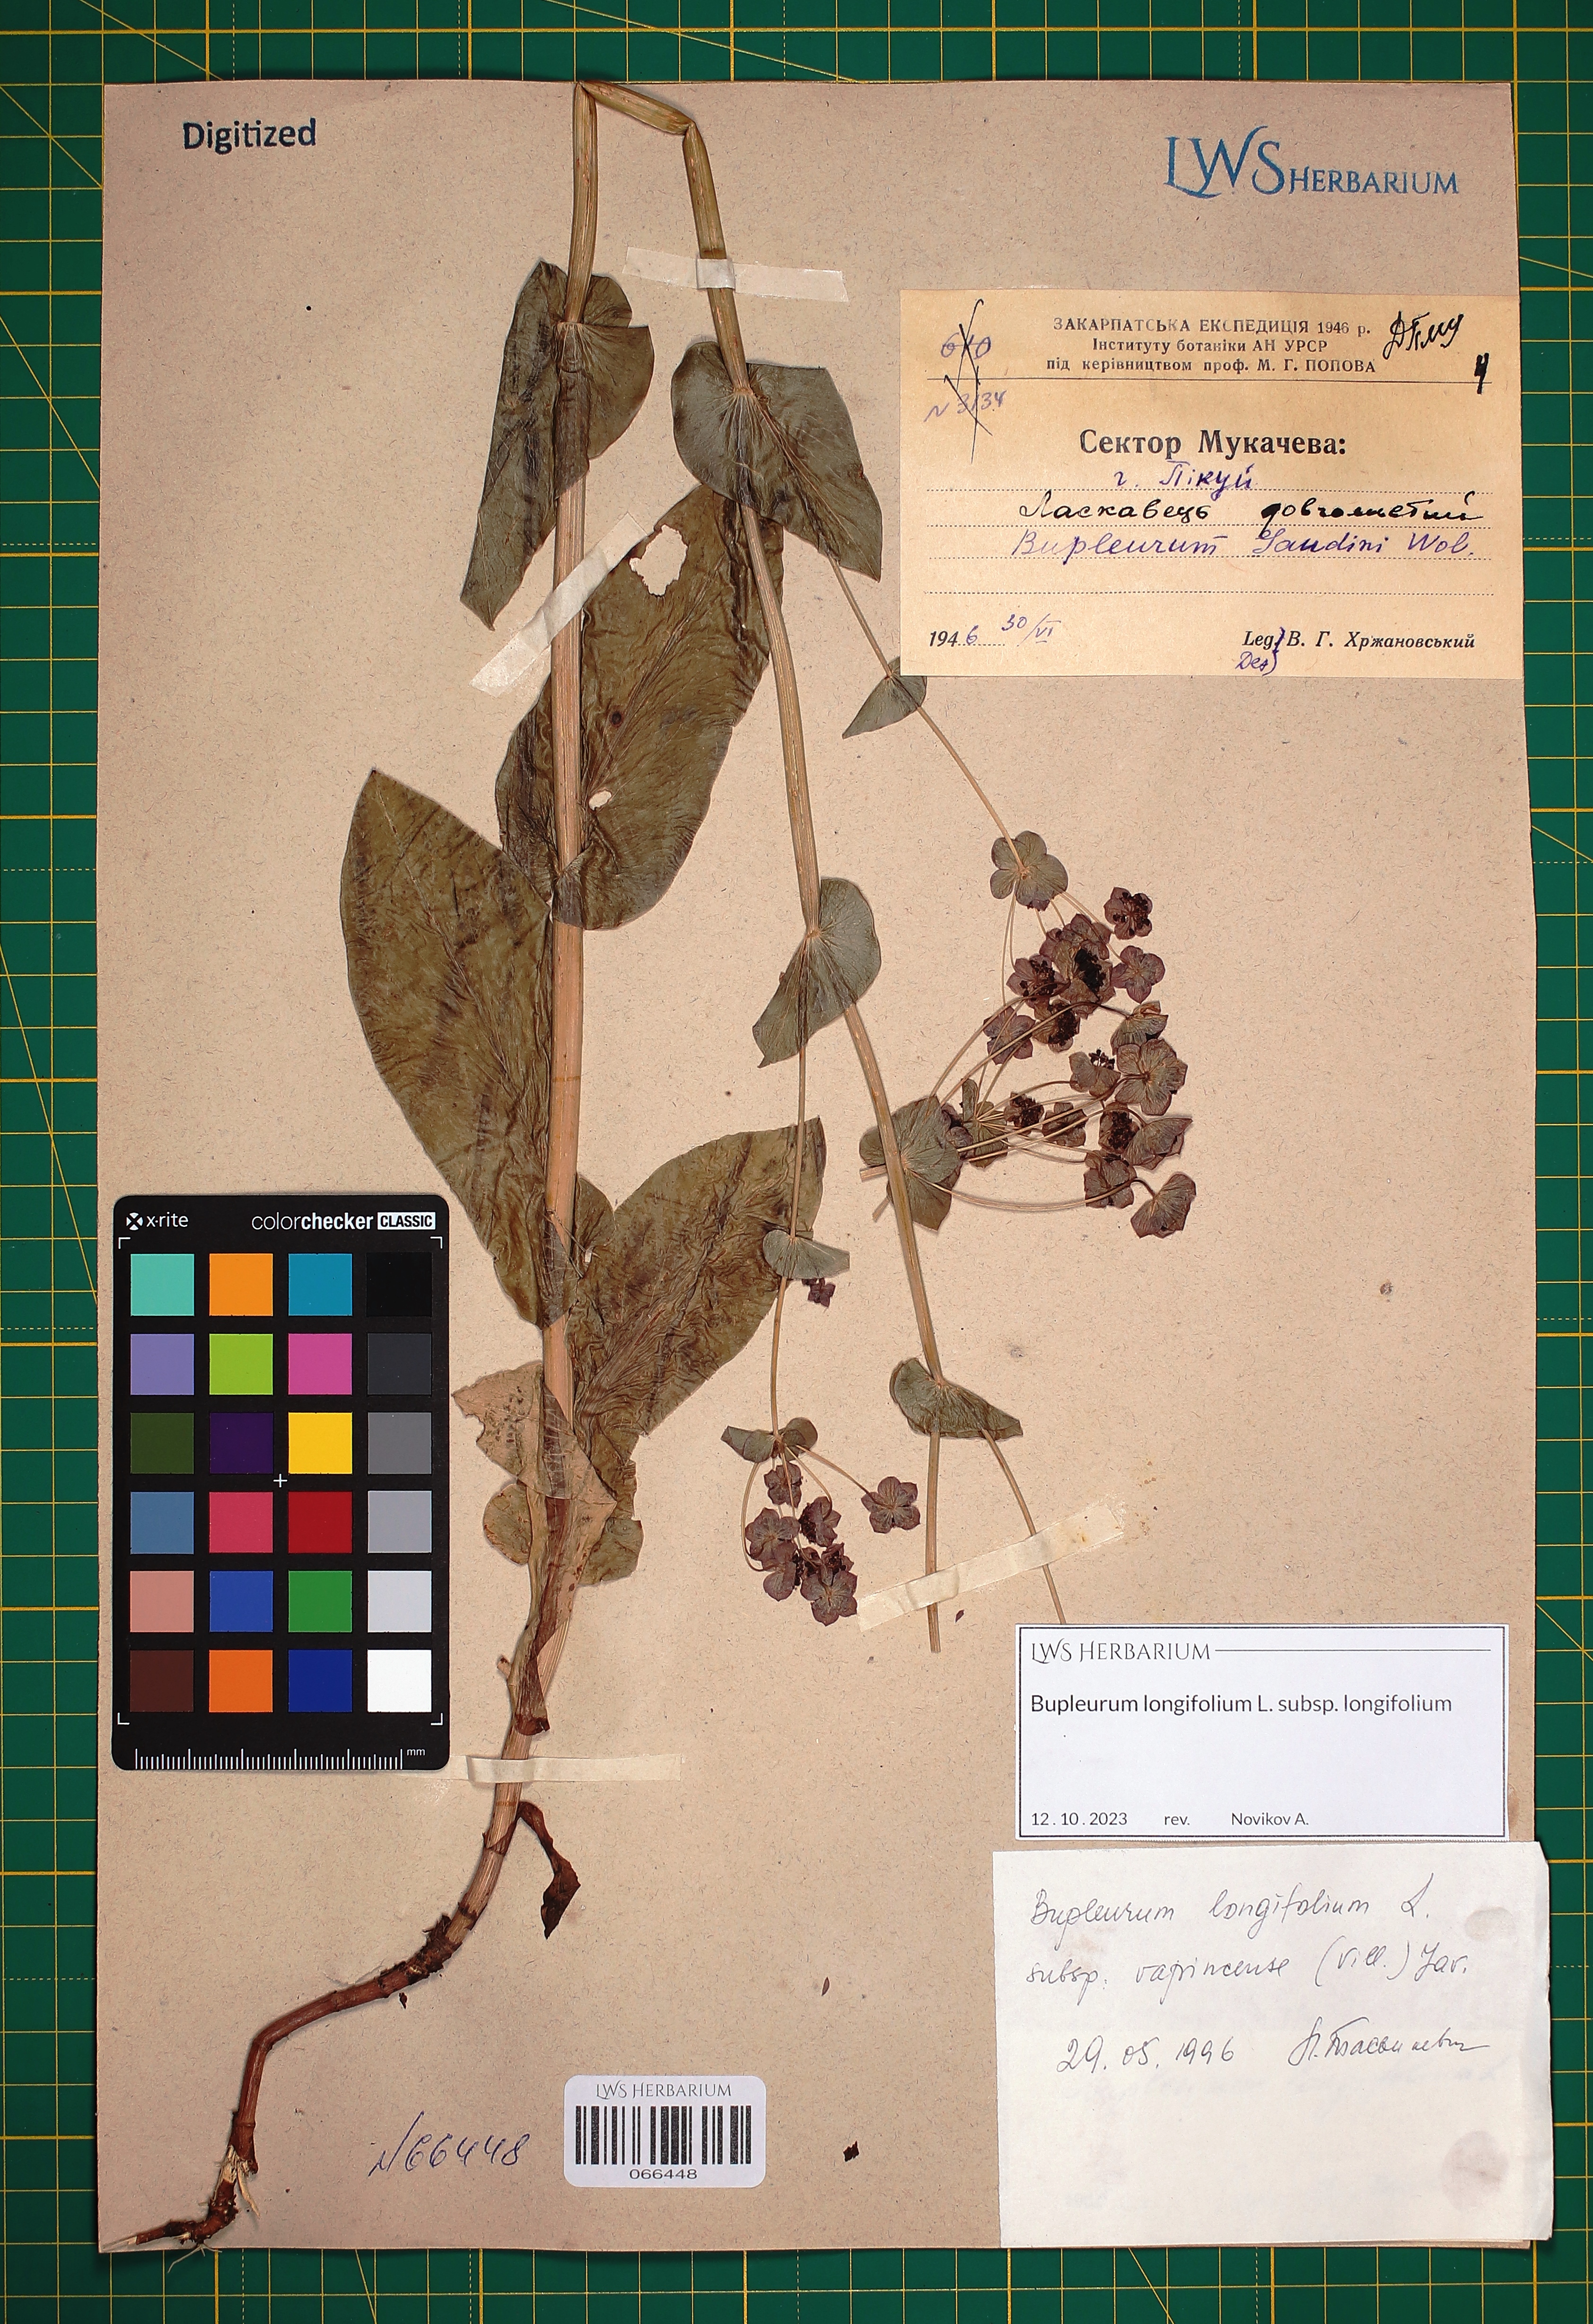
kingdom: Plantae
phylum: Tracheophyta
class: Magnoliopsida
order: Apiales
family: Apiaceae
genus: Bupleurum
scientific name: Bupleurum longifolium
